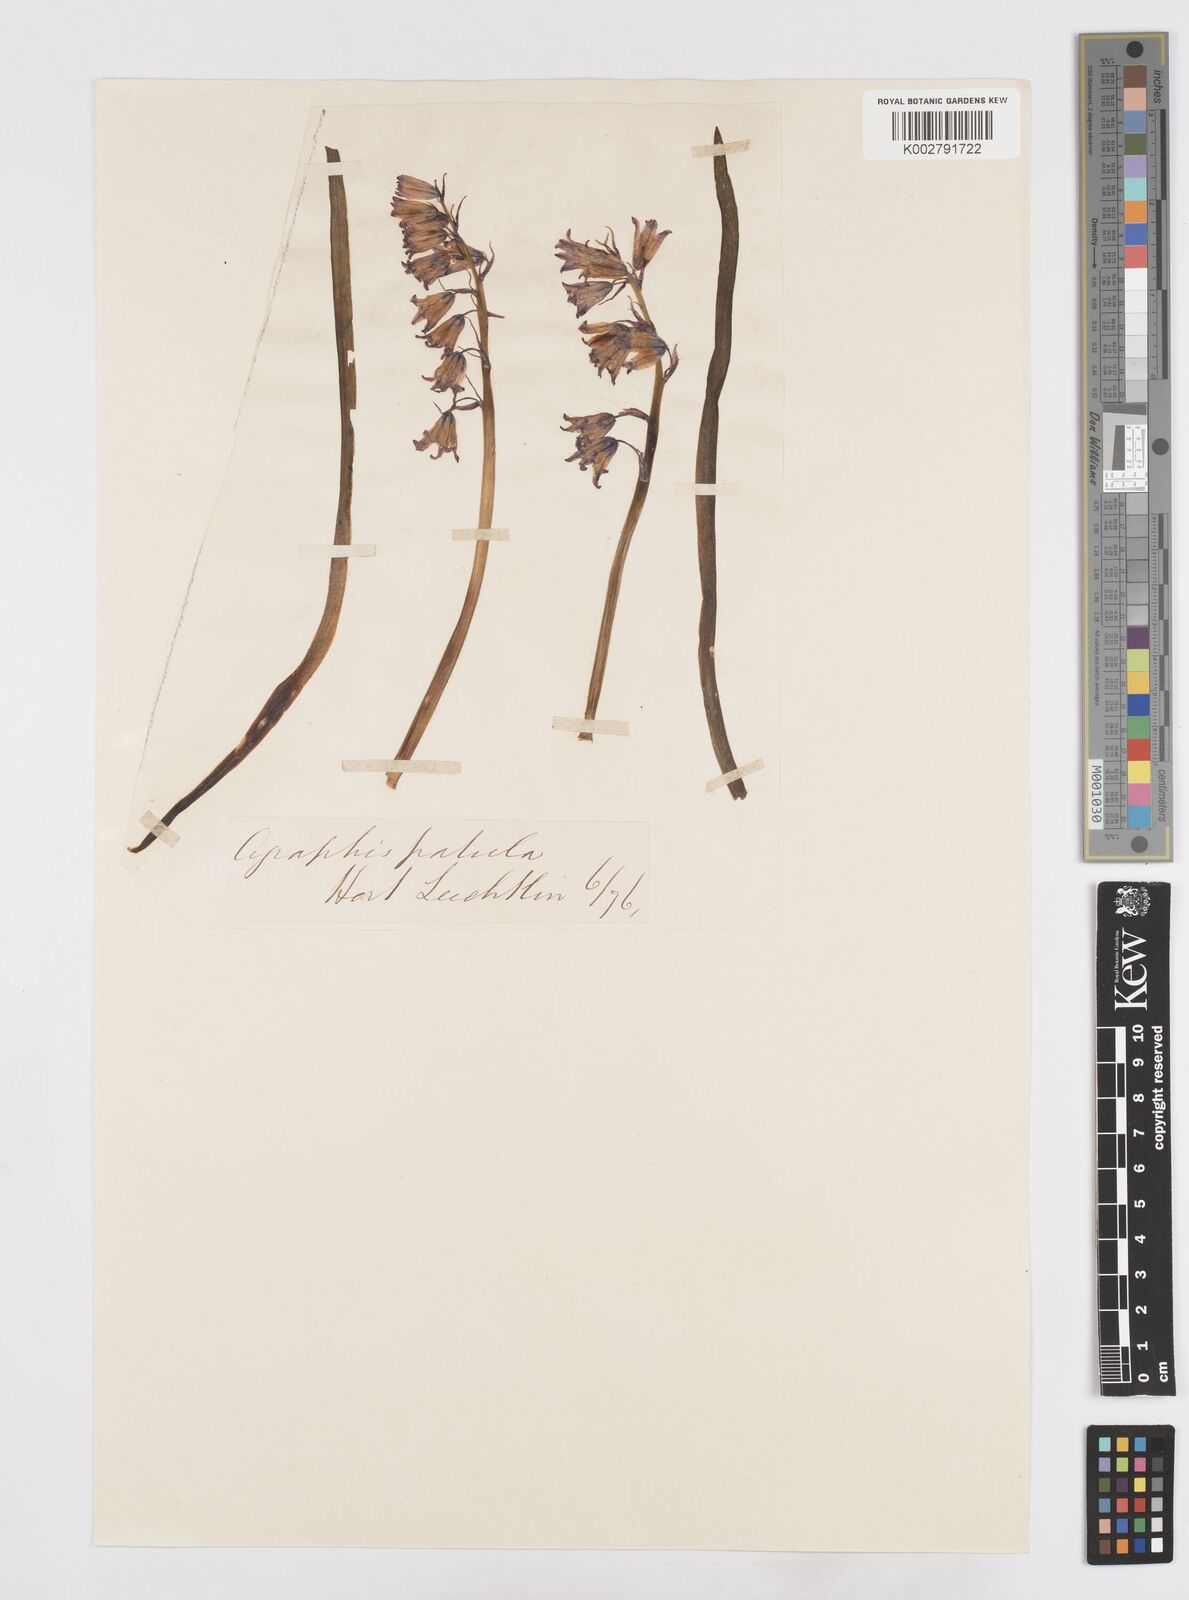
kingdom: Plantae
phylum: Tracheophyta
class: Liliopsida
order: Asparagales
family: Asparagaceae
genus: Hyacinthoides
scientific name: Hyacinthoides hispanica
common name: Spanish bluebell
